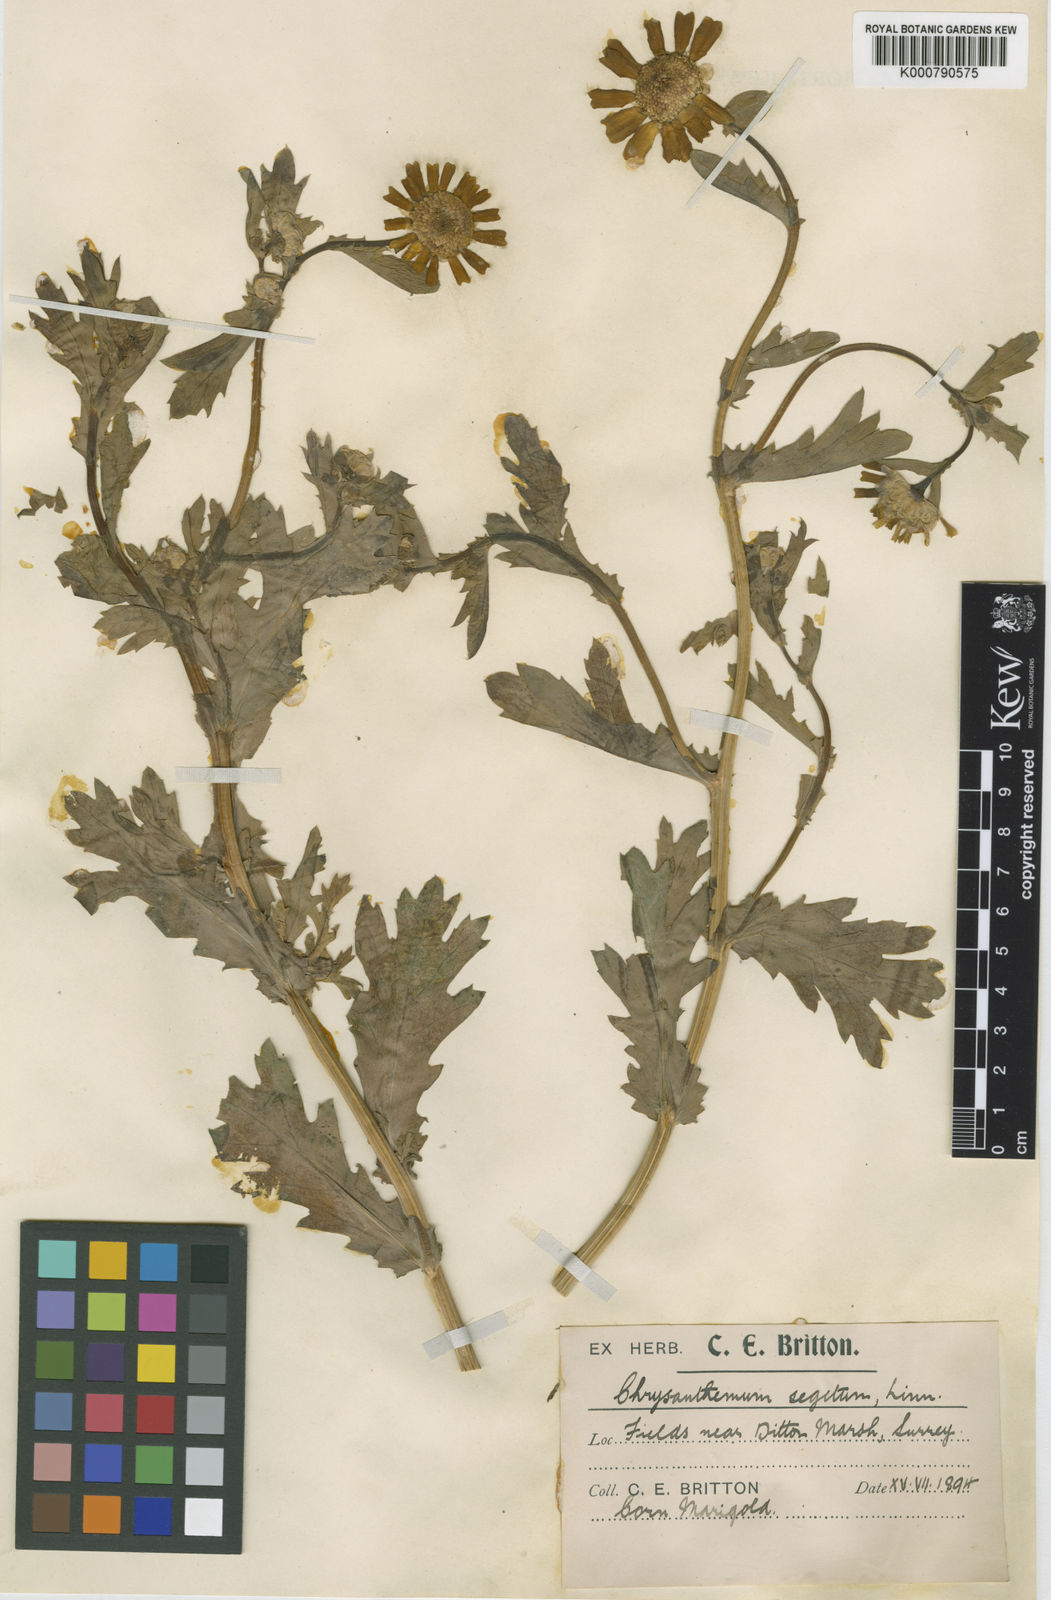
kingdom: Plantae
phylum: Tracheophyta
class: Magnoliopsida
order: Asterales
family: Asteraceae
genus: Glebionis
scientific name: Glebionis
